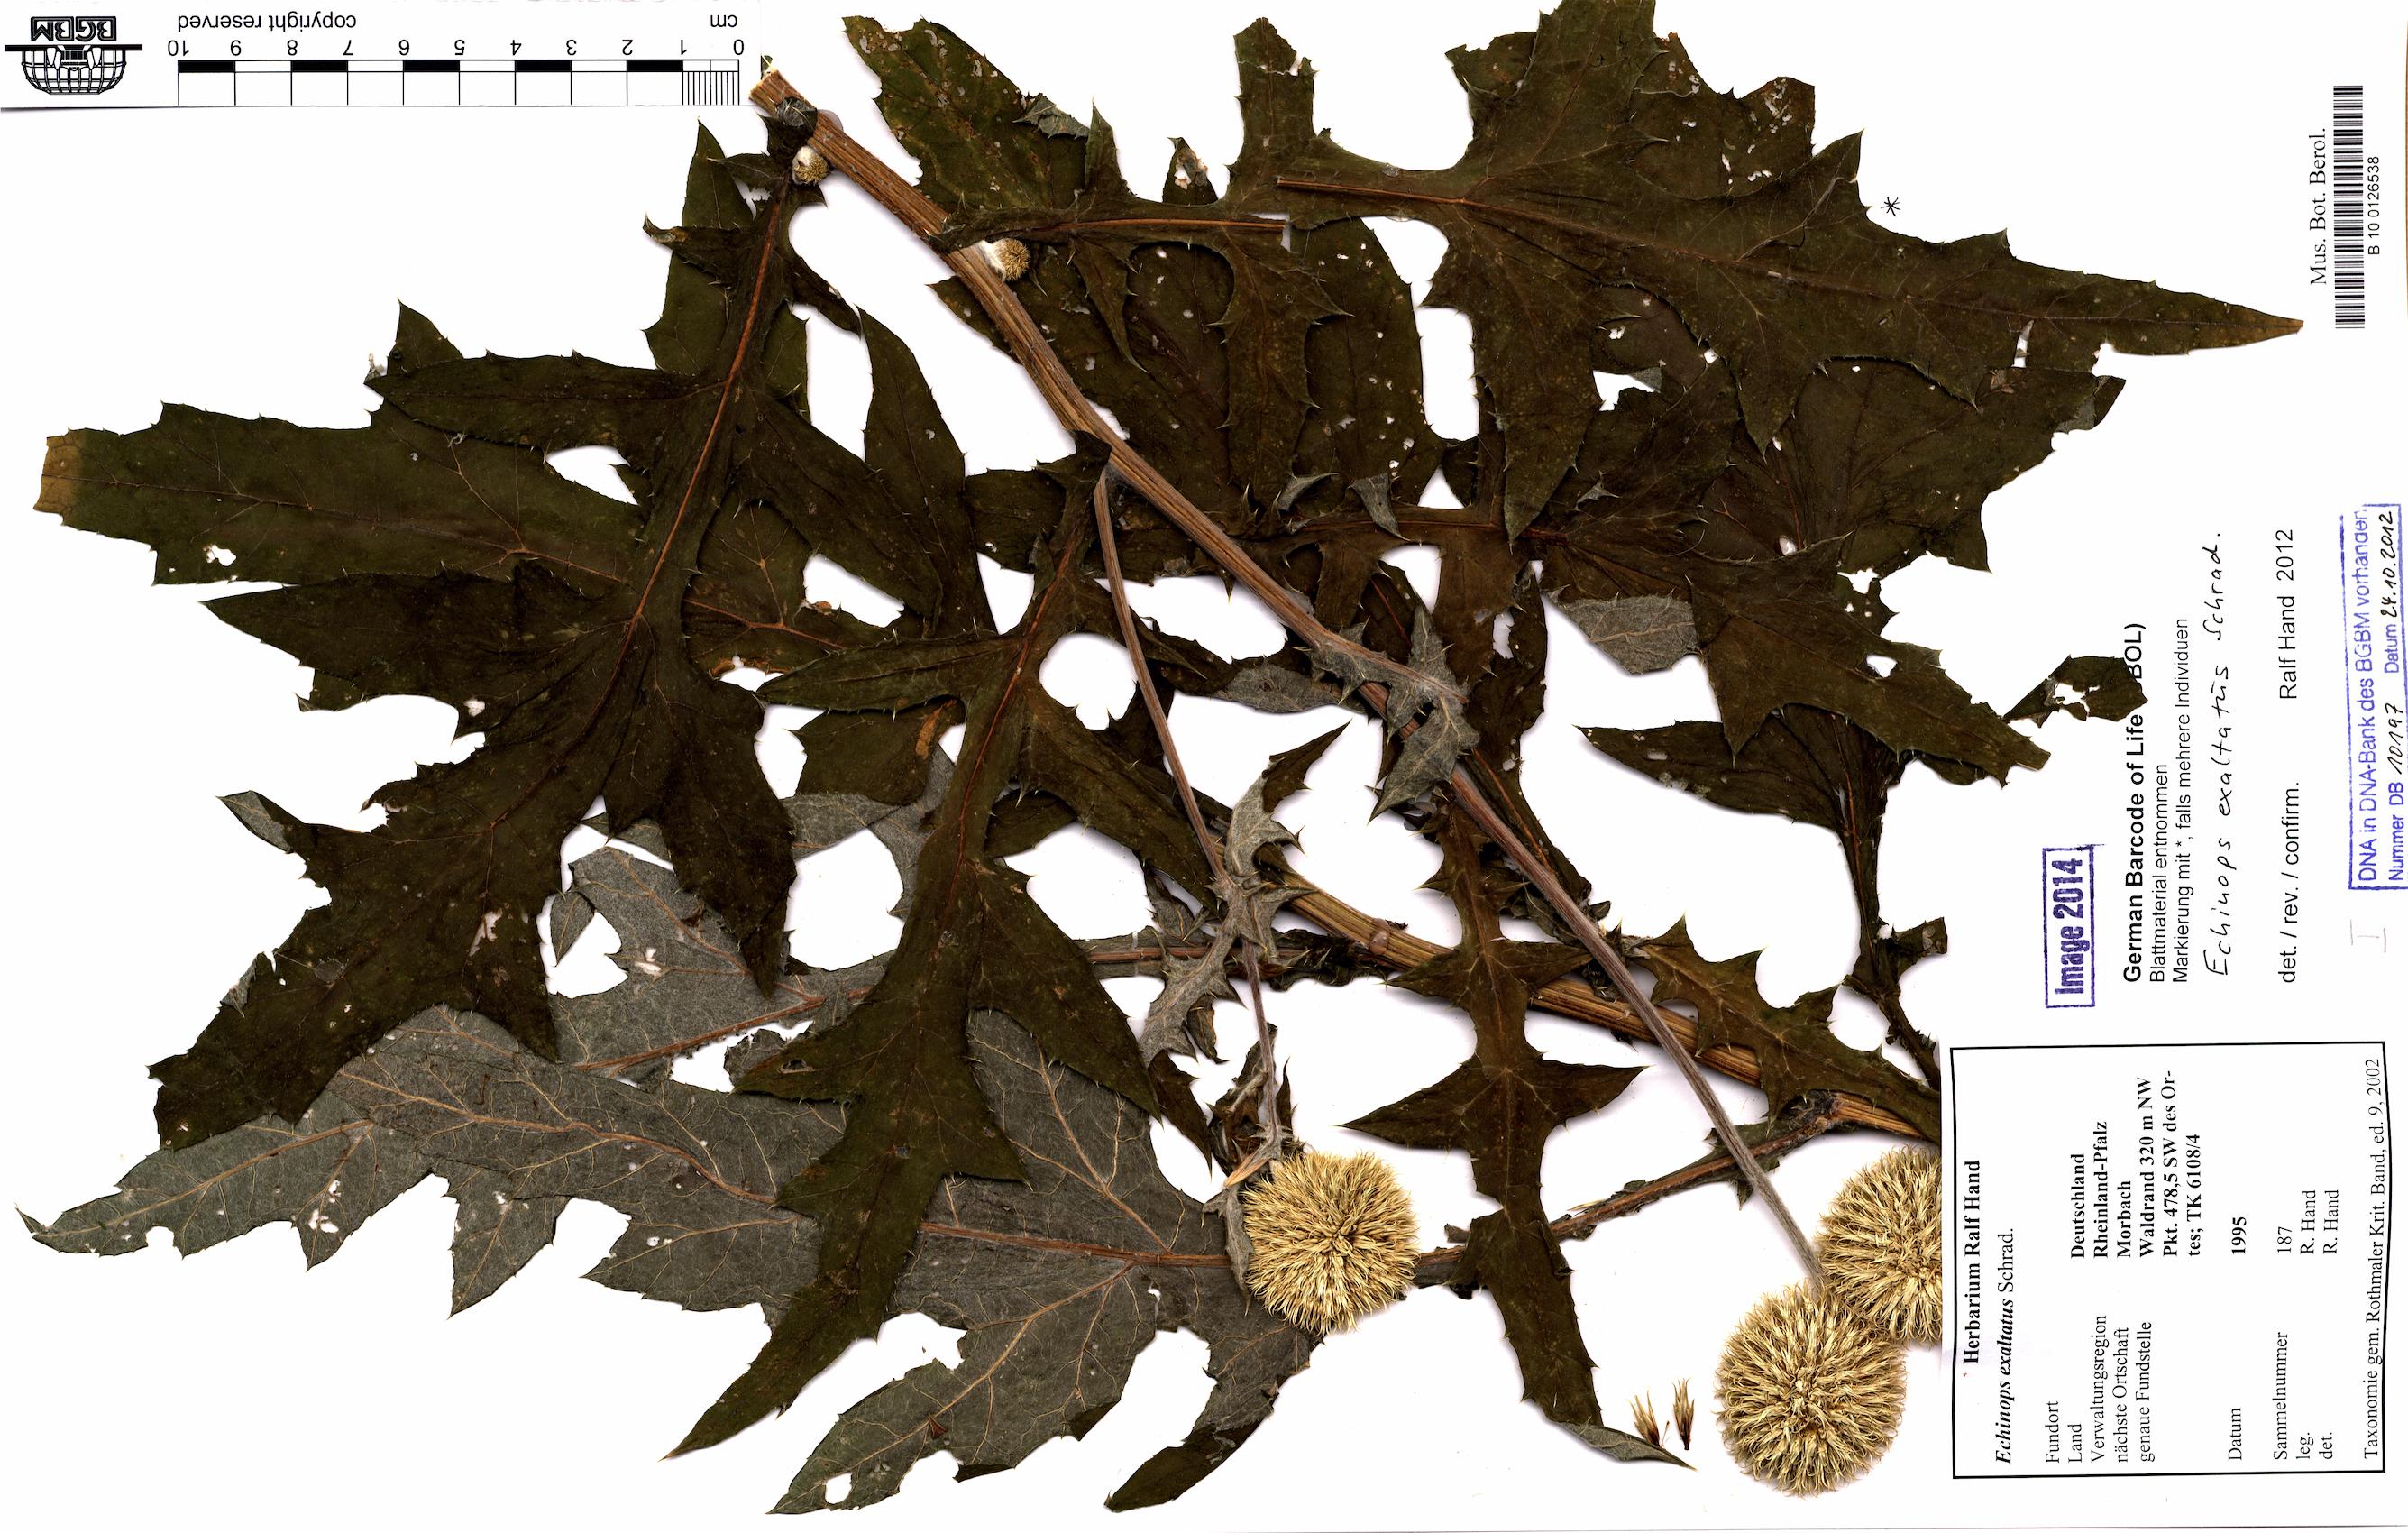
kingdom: Plantae
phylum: Tracheophyta
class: Magnoliopsida
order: Asterales
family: Asteraceae
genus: Echinops
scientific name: Echinops exaltatus
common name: Globe-thistle
